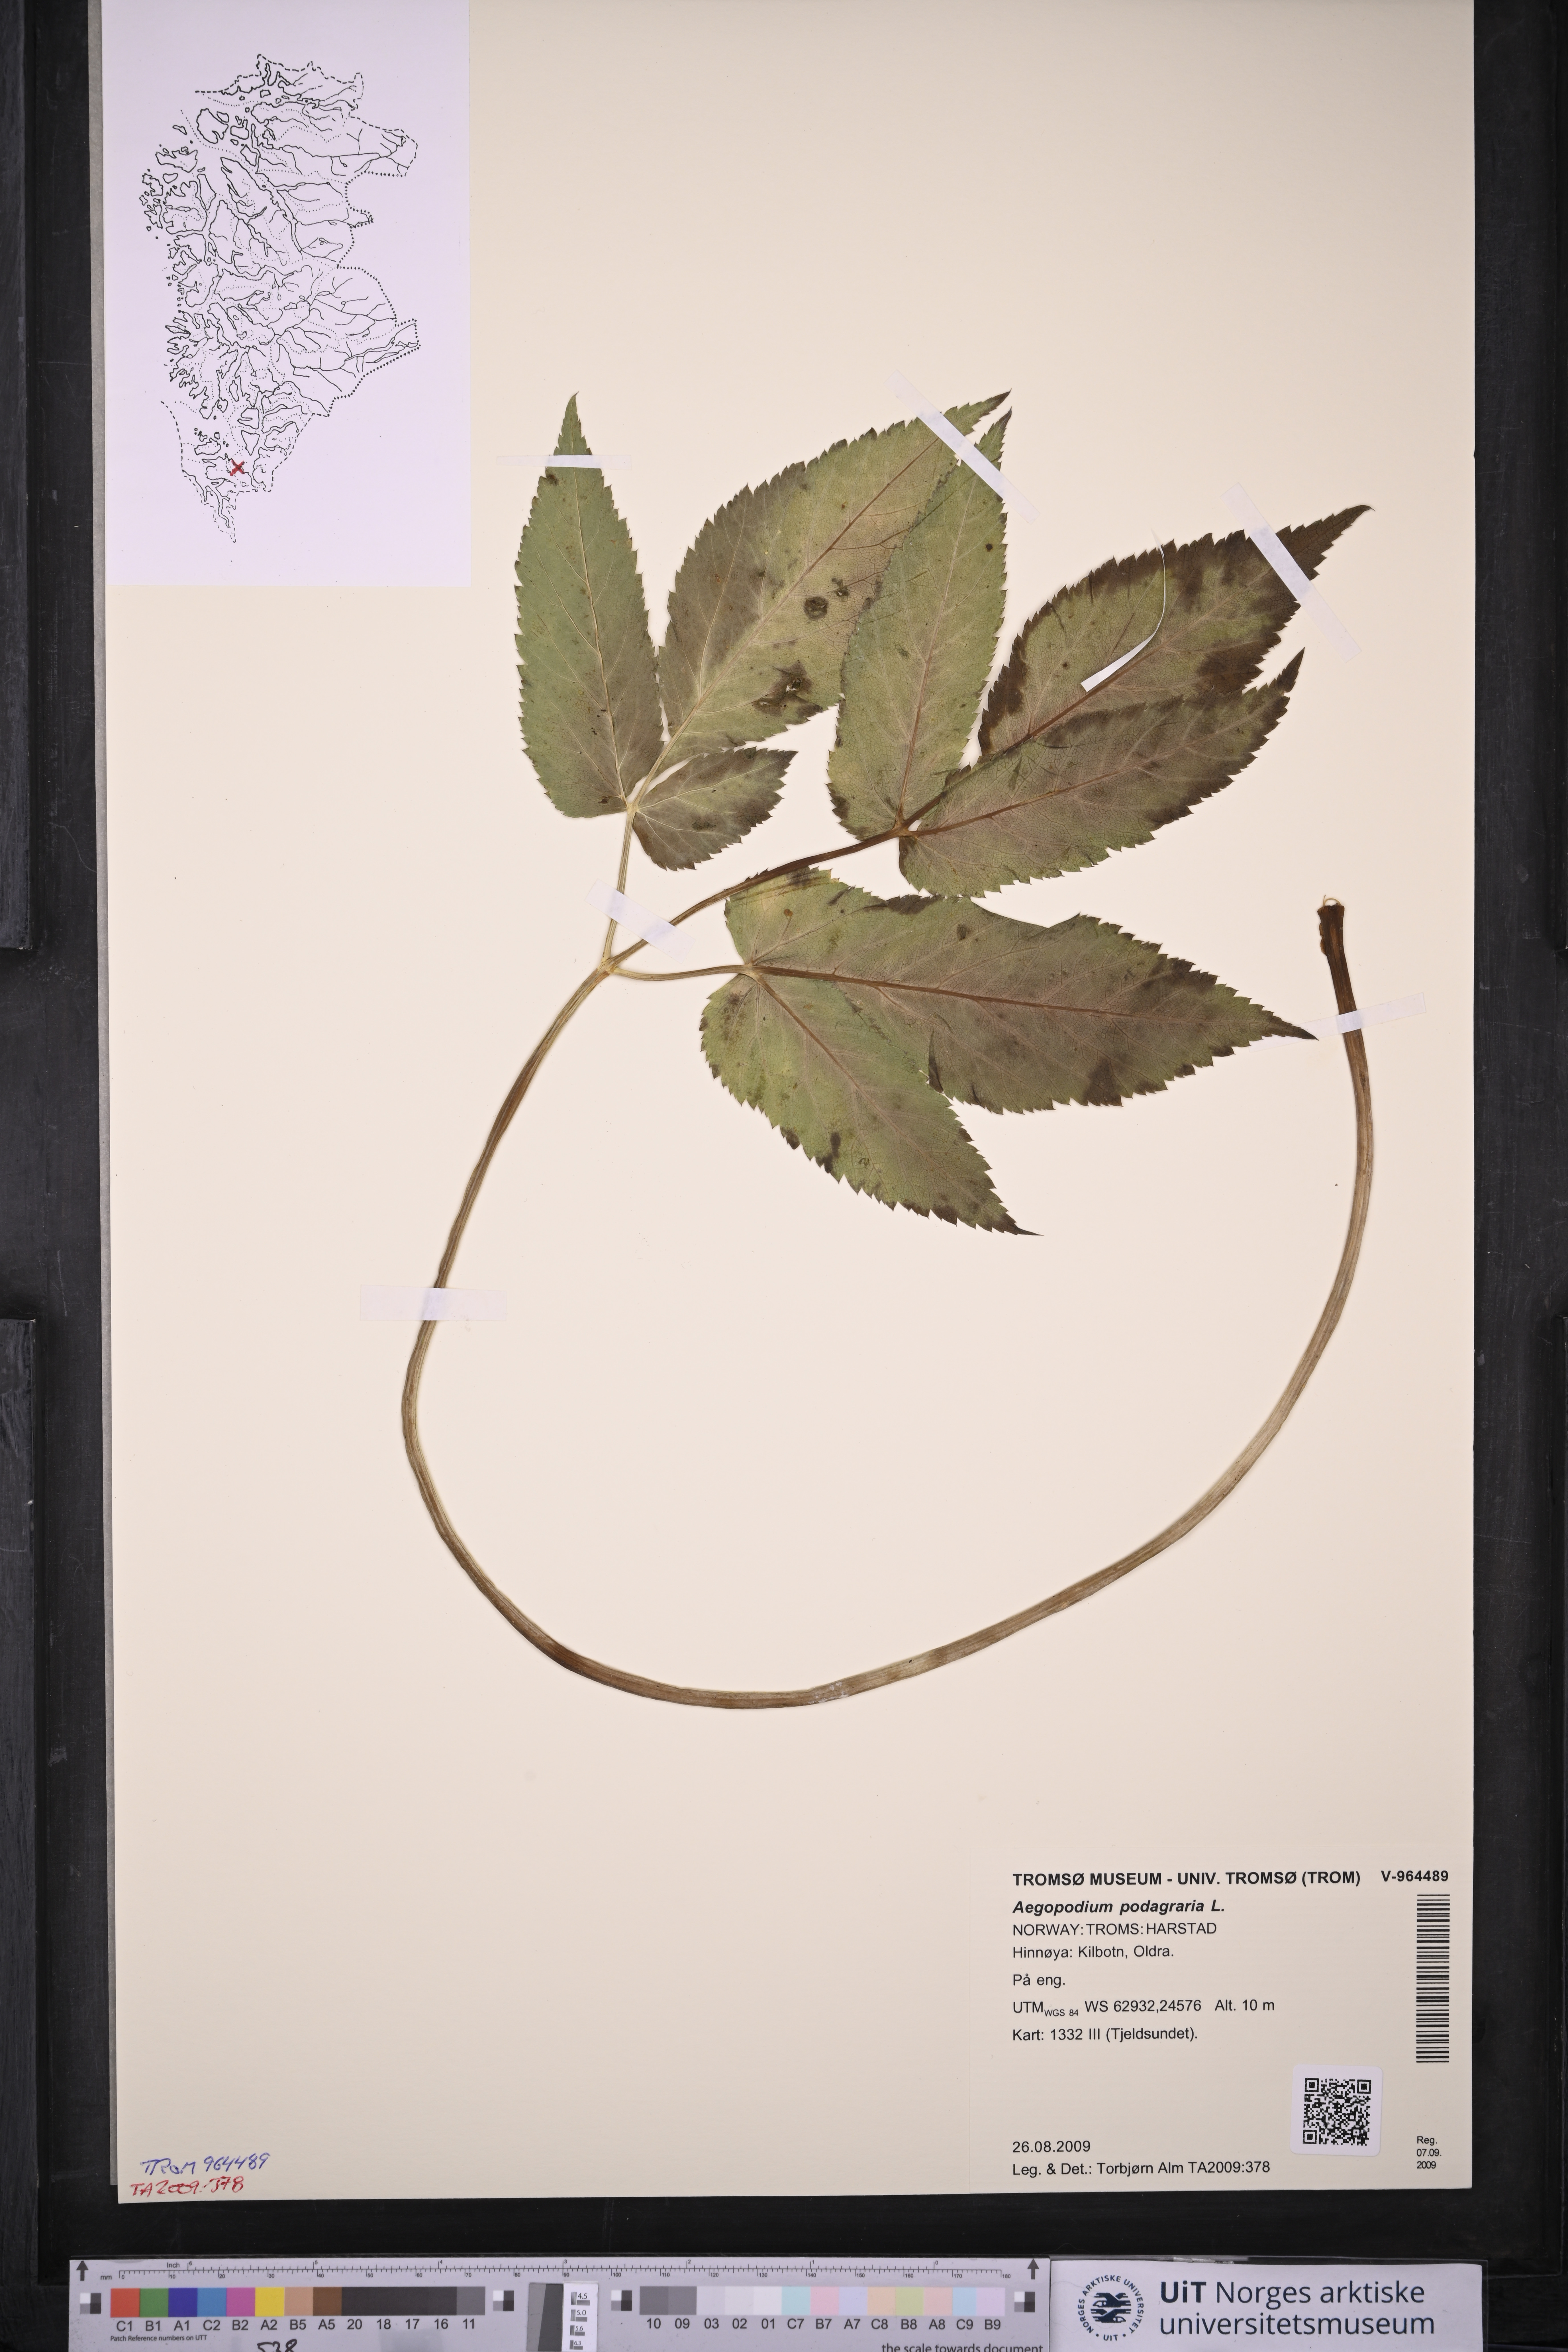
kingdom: Plantae
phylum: Tracheophyta
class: Magnoliopsida
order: Apiales
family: Apiaceae
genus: Aegopodium
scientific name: Aegopodium podagraria
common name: Ground-elder
